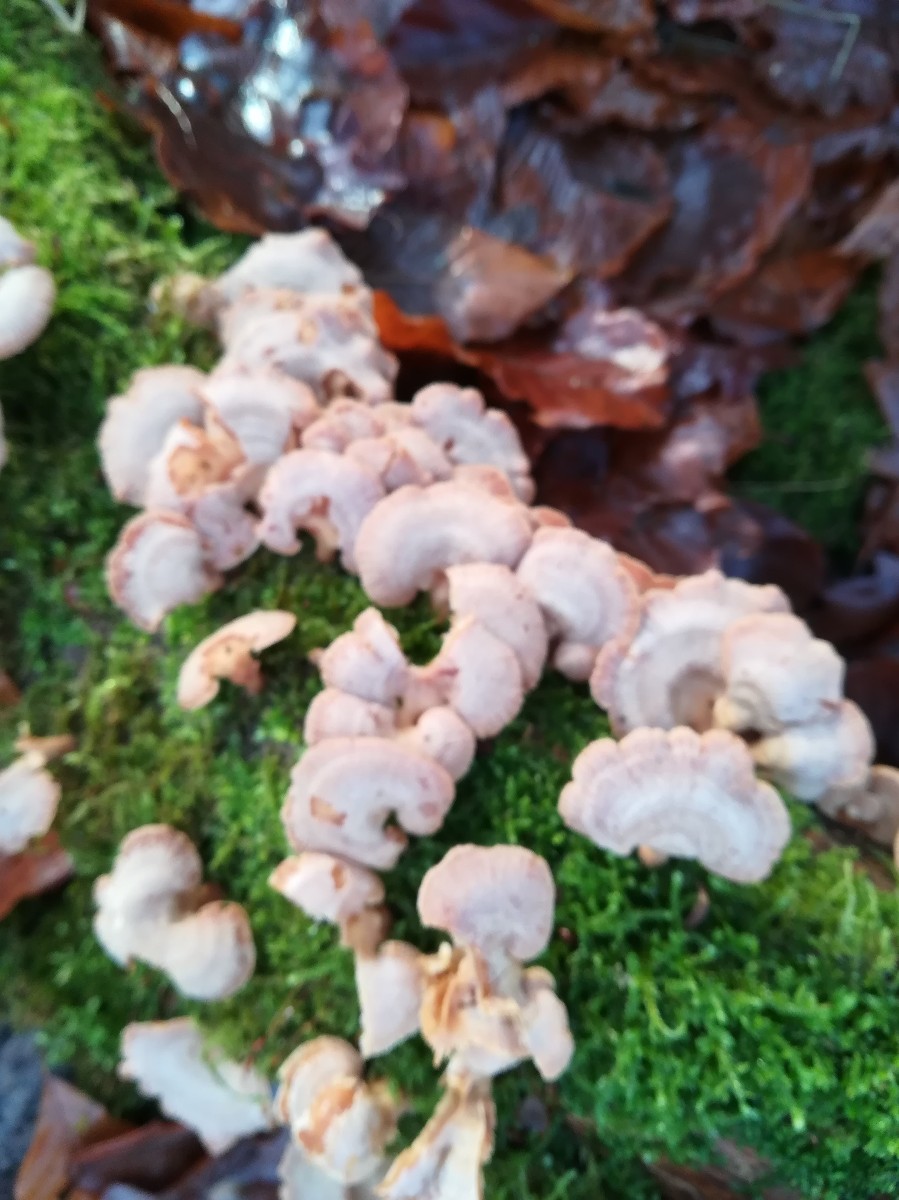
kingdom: Fungi
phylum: Basidiomycota
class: Agaricomycetes
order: Agaricales
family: Mycenaceae
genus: Panellus
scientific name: Panellus stipticus
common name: kliddet epaulethat
